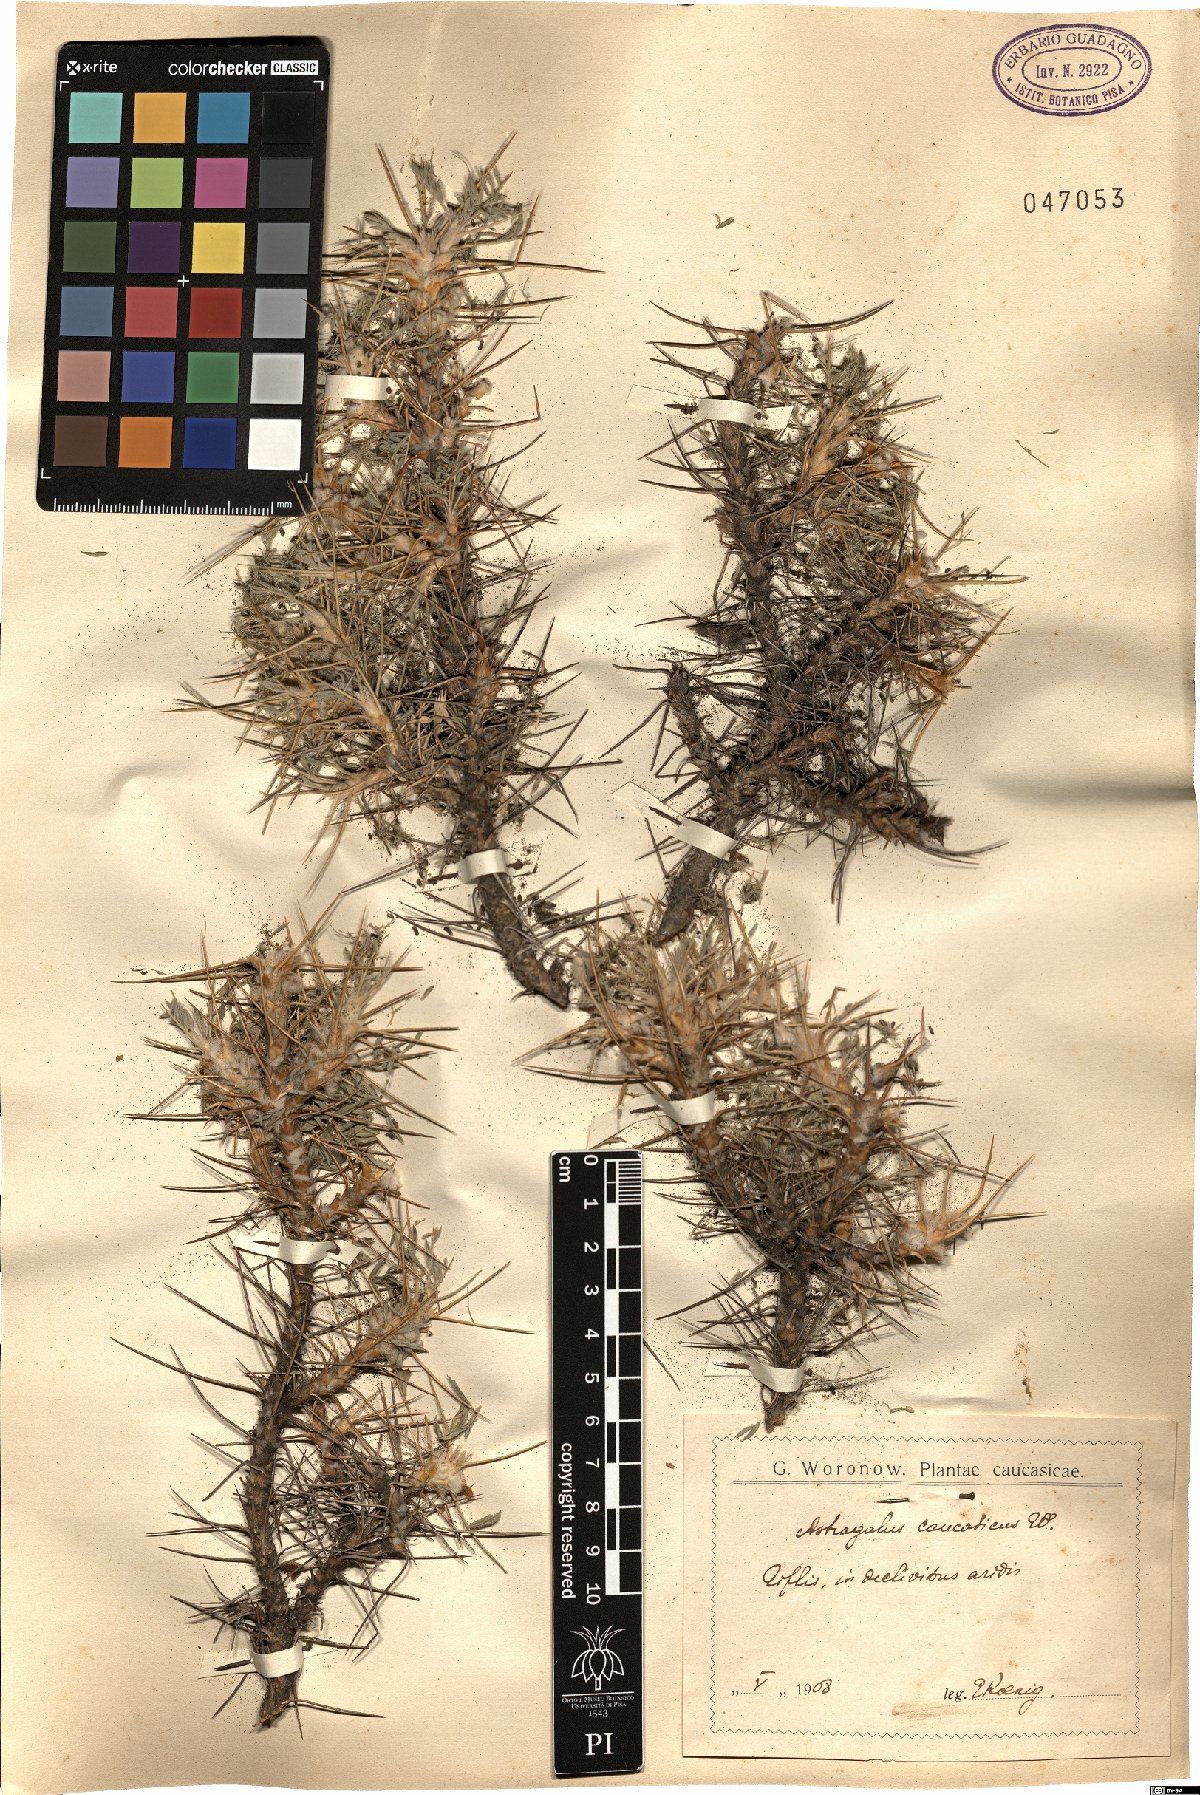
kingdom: Plantae
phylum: Tracheophyta
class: Magnoliopsida
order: Fabales
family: Fabaceae
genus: Astragalus
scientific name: Astragalus caucasicus
